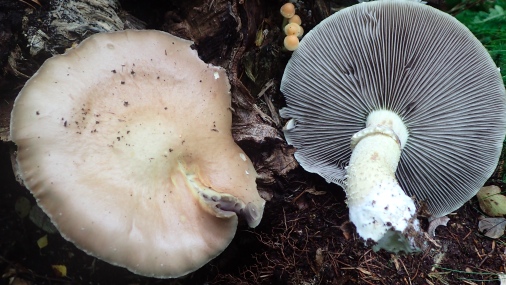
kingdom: Fungi
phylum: Basidiomycota
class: Agaricomycetes
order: Agaricales
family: Strophariaceae
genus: Stropharia
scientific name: Stropharia hornemannii
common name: nordisk bredblad
